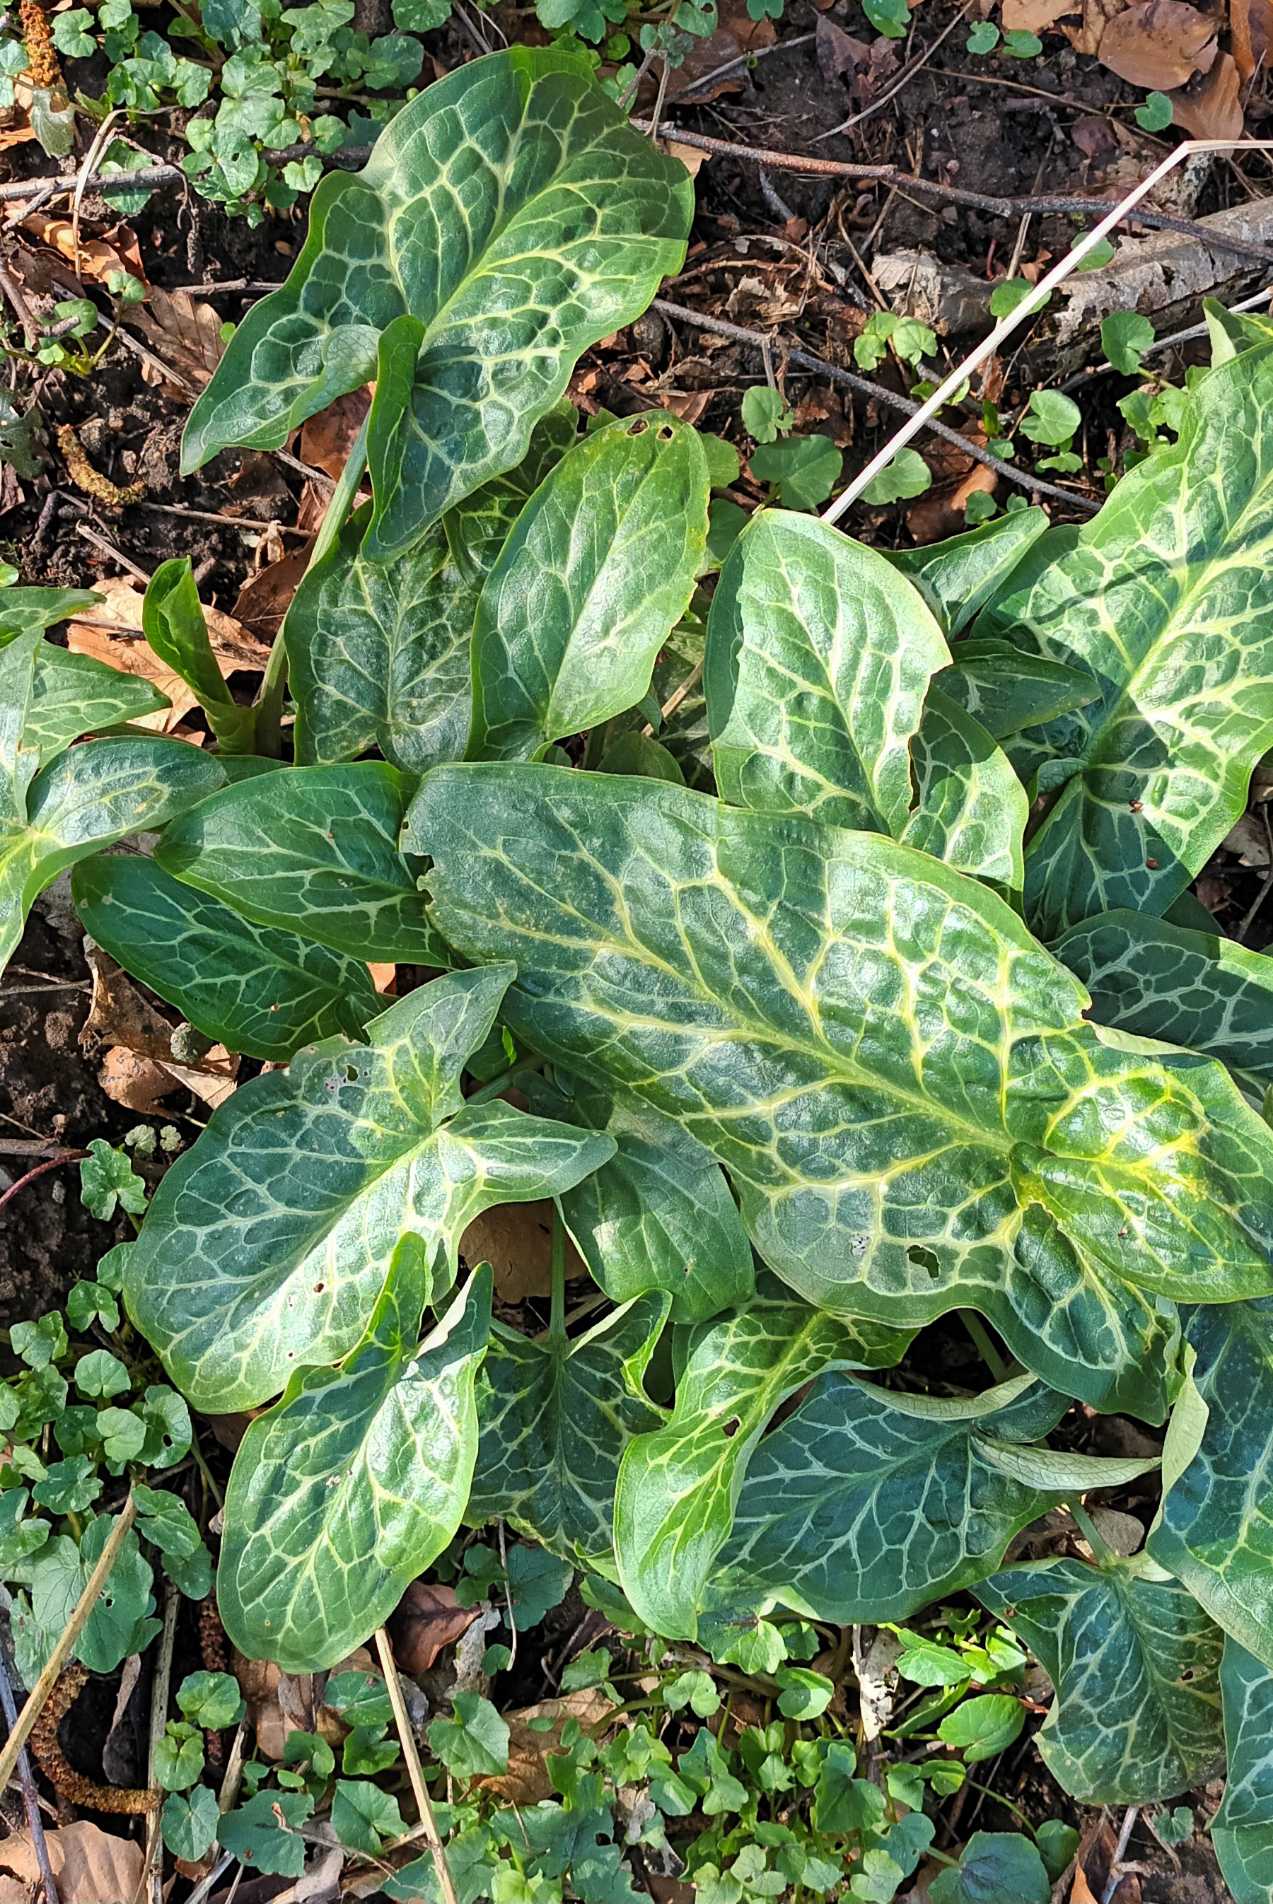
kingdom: Plantae
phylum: Tracheophyta
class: Liliopsida
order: Alismatales
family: Araceae
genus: Arum
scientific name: Arum italicum
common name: Italiensk arum
